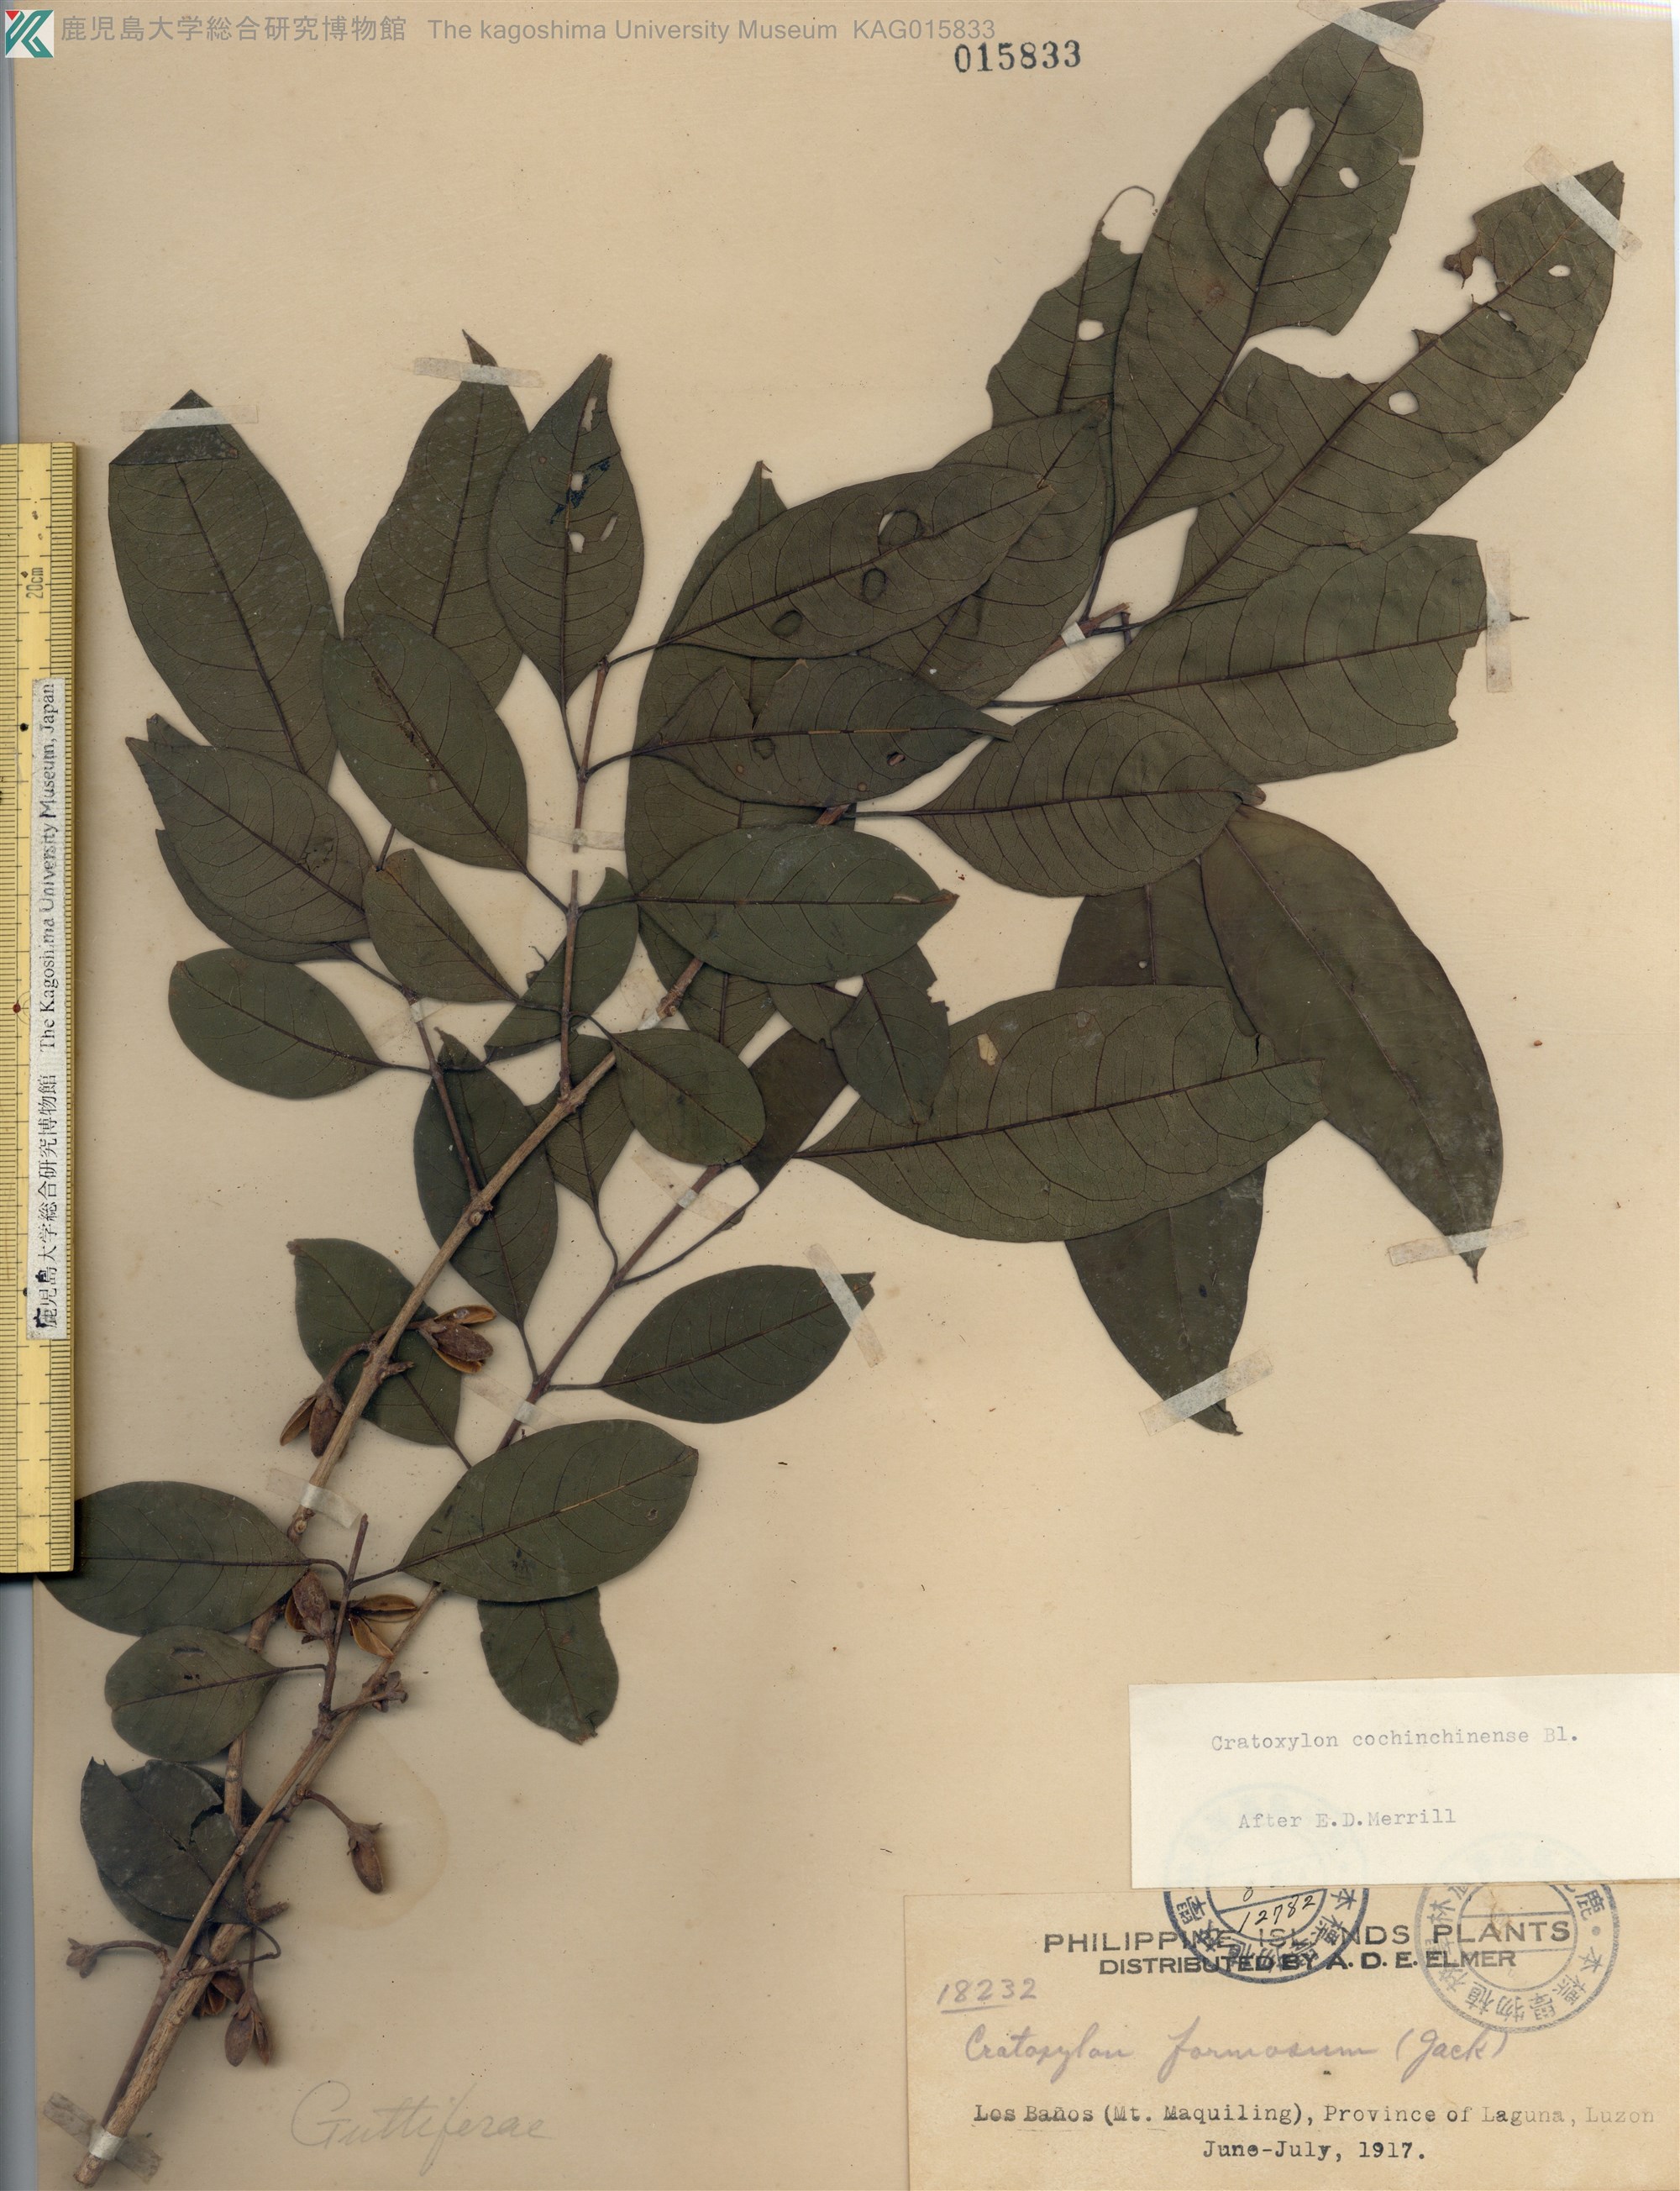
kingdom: Plantae
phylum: Tracheophyta
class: Magnoliopsida
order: Malpighiales
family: Hypericaceae
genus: Cratoxylum
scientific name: Cratoxylum cochinchinense
